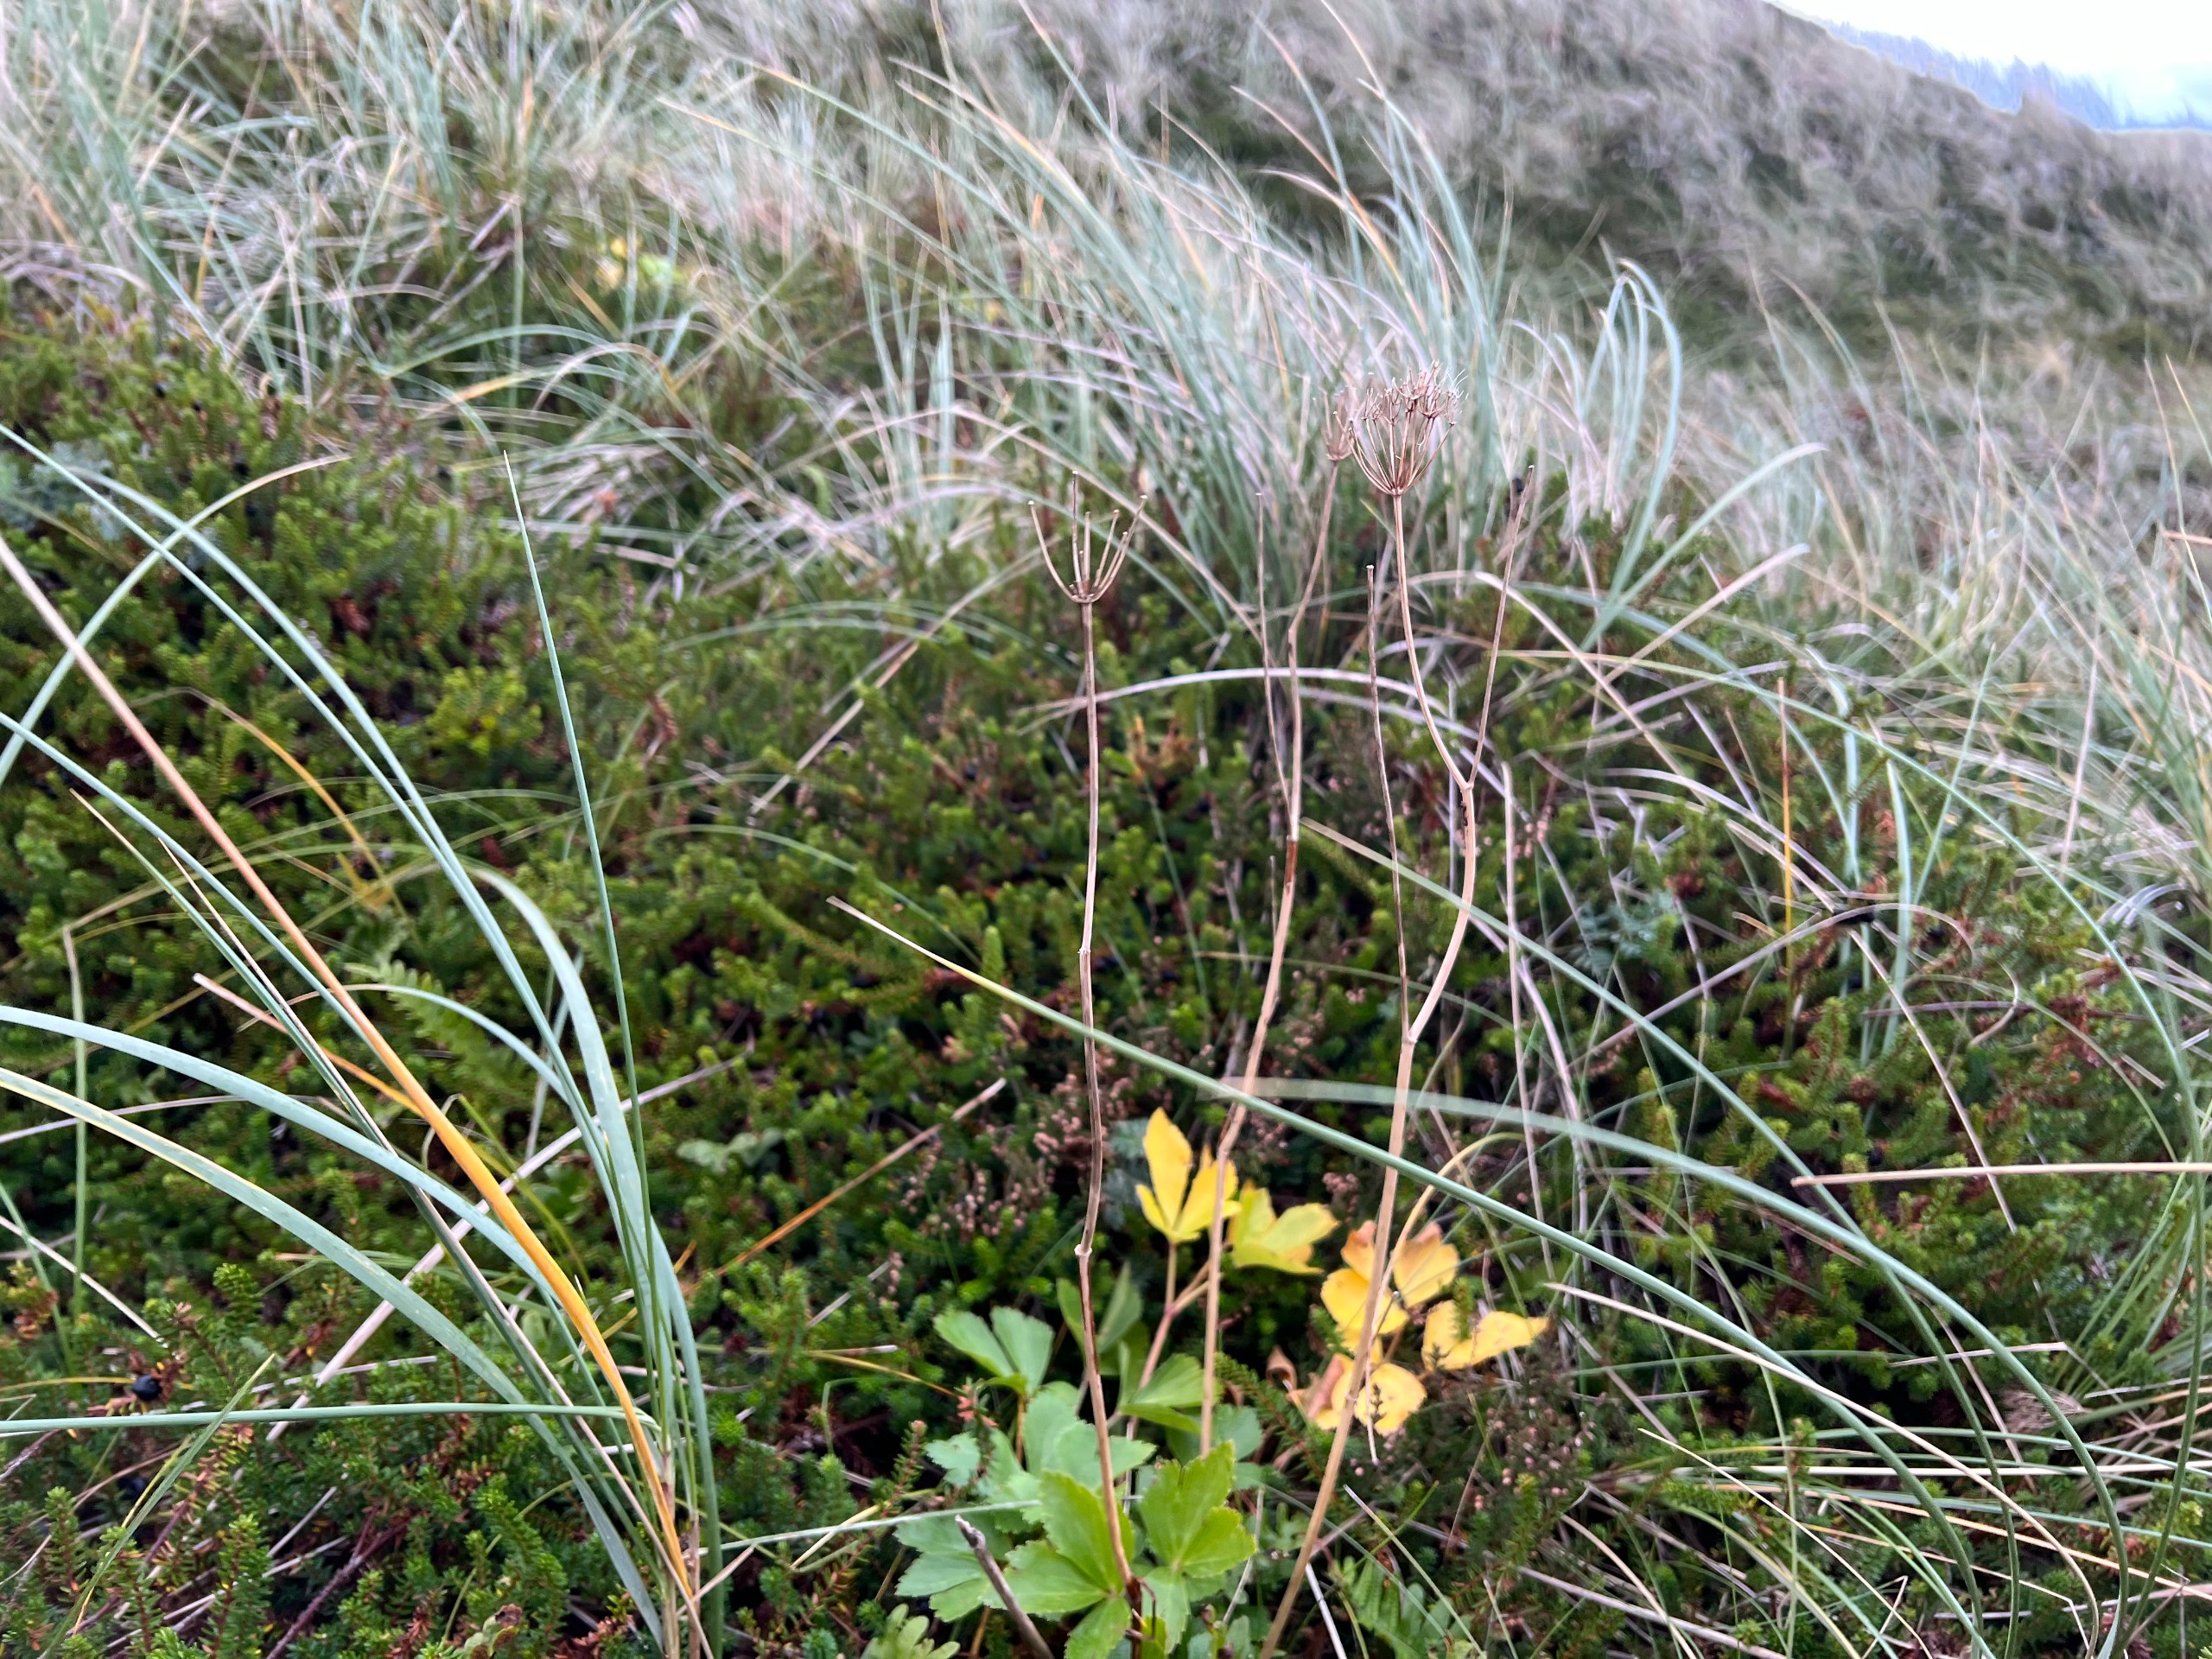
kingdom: Plantae
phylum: Tracheophyta
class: Magnoliopsida
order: Apiales
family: Apiaceae
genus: Ligusticum
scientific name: Ligusticum scothicum
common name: Skotsk lostilk
